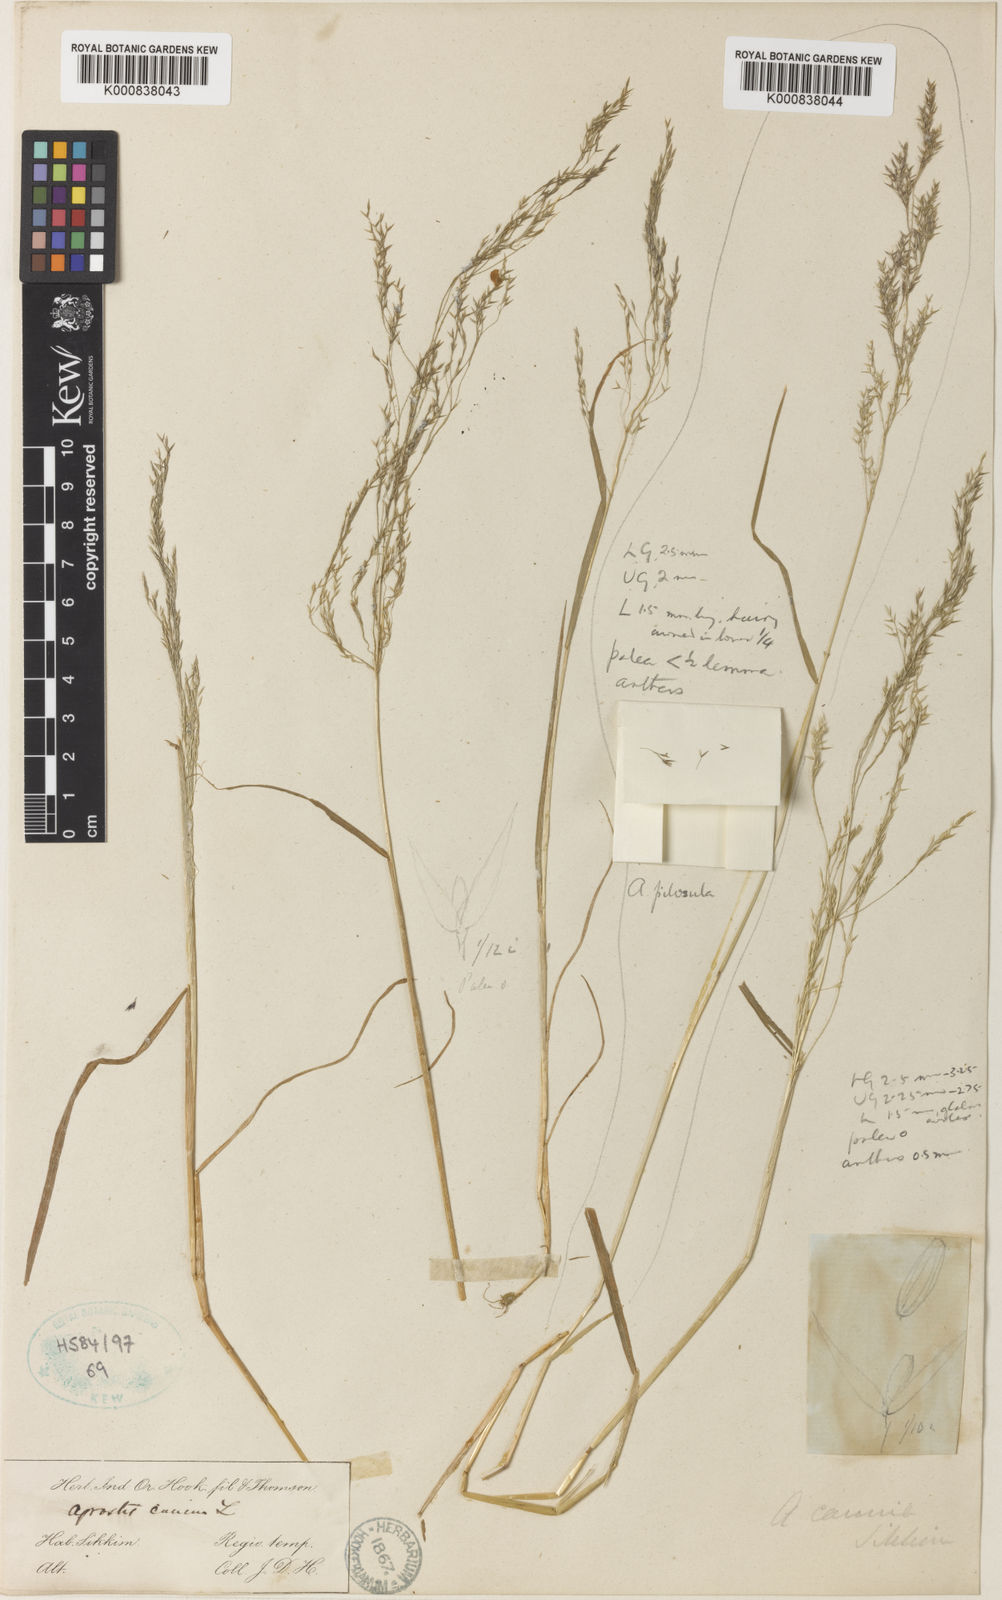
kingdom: Plantae
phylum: Tracheophyta
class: Liliopsida
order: Poales
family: Poaceae
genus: Agrostis
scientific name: Agrostis nervosa
